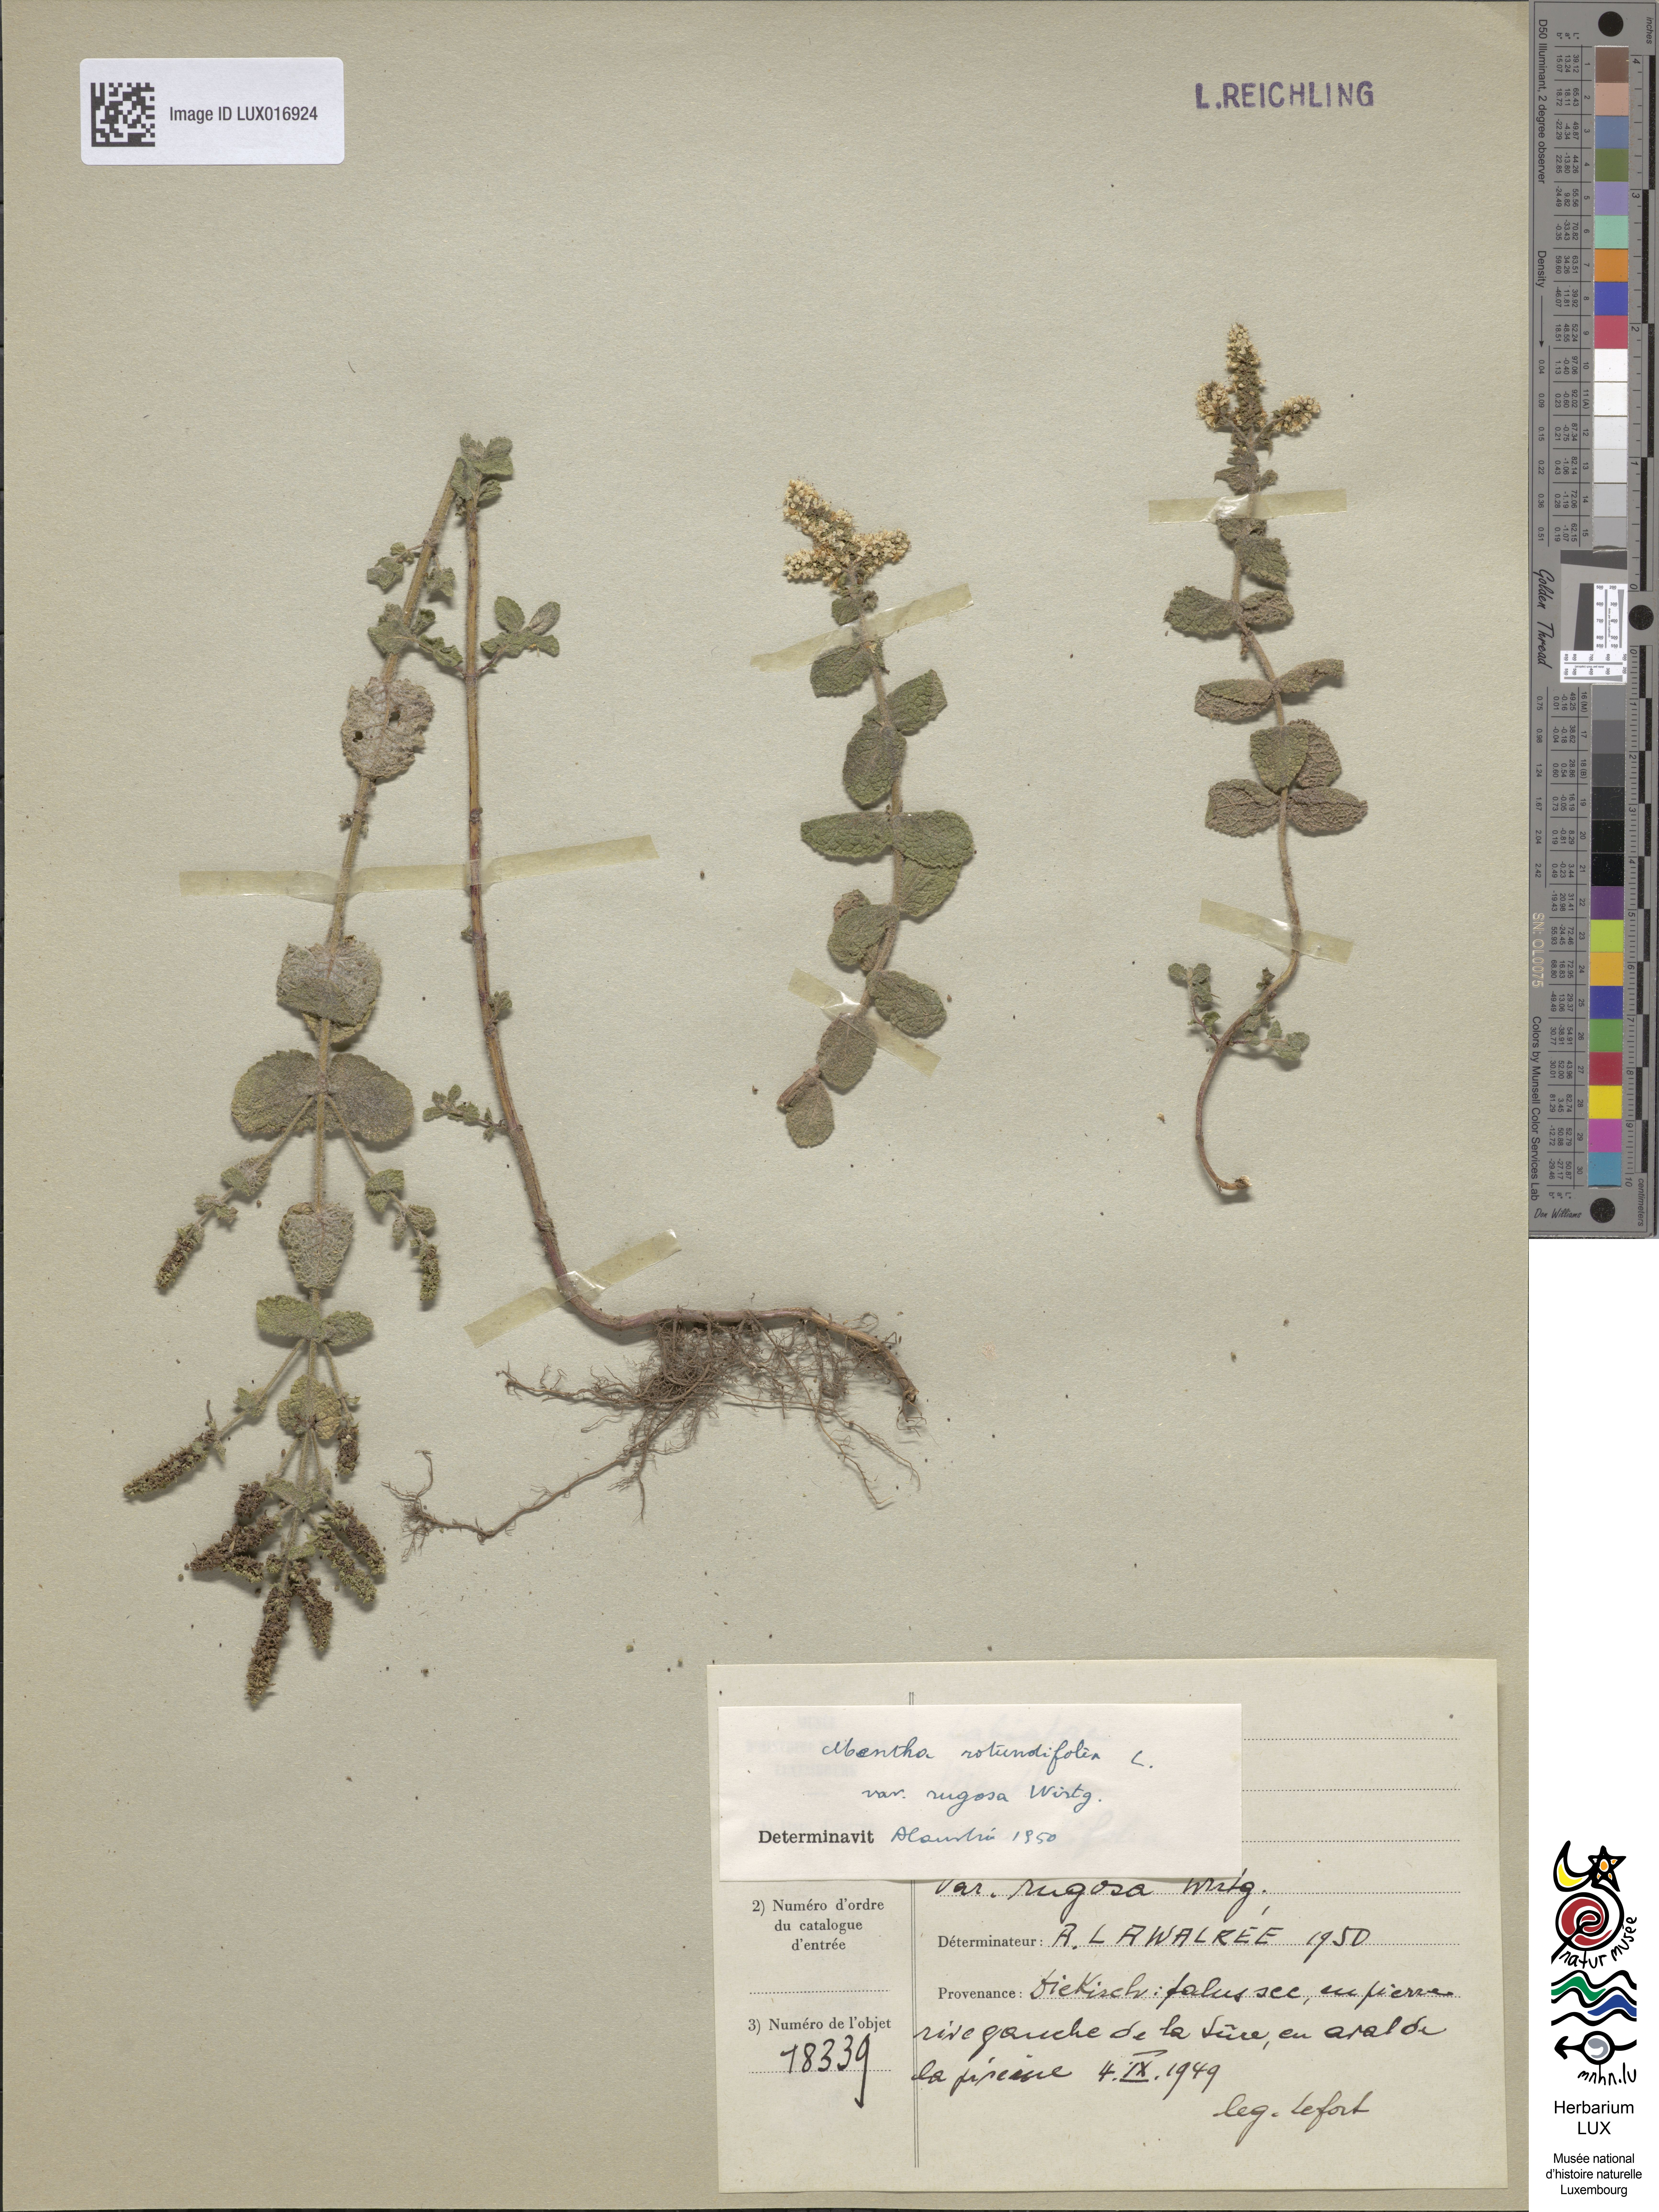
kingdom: Plantae
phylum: Tracheophyta
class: Magnoliopsida
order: Lamiales
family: Lamiaceae
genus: Mentha
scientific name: Mentha rotundifolia
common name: Bigleaf mint
